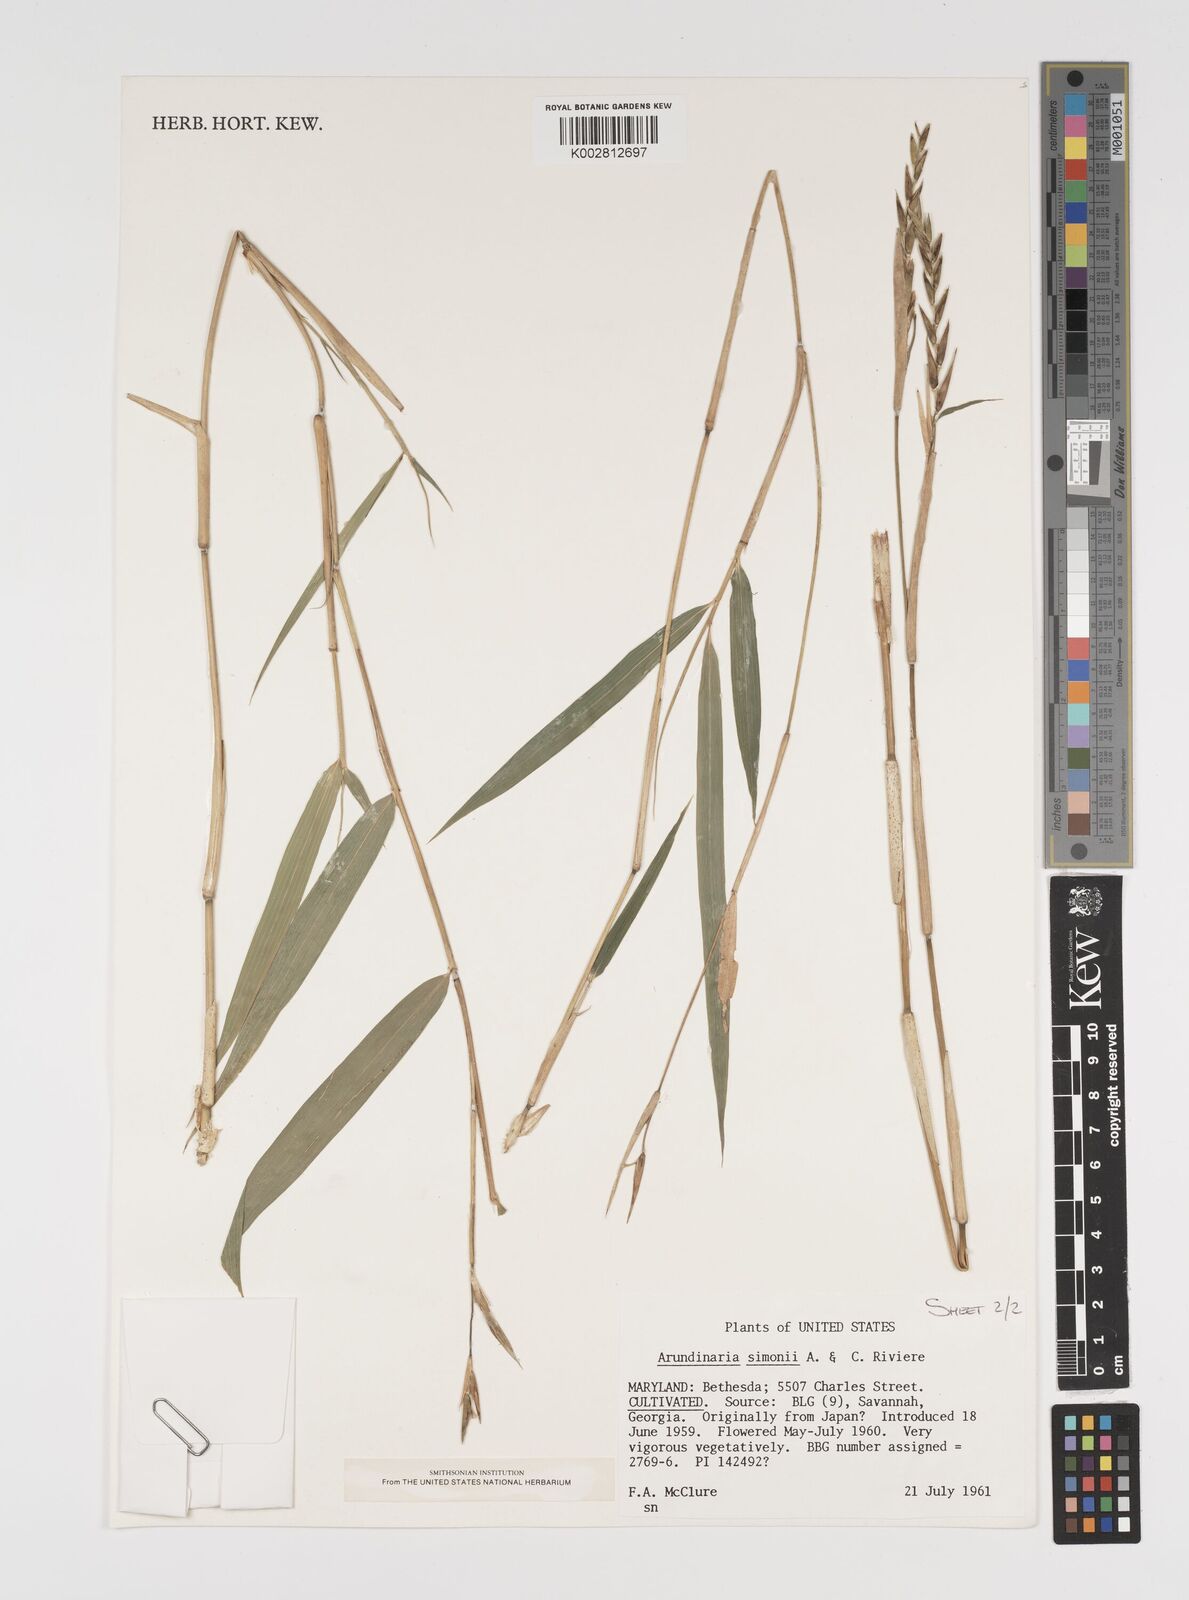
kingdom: Plantae
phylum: Tracheophyta
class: Liliopsida
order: Poales
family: Poaceae
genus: Arundinaria
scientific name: Arundinaria
